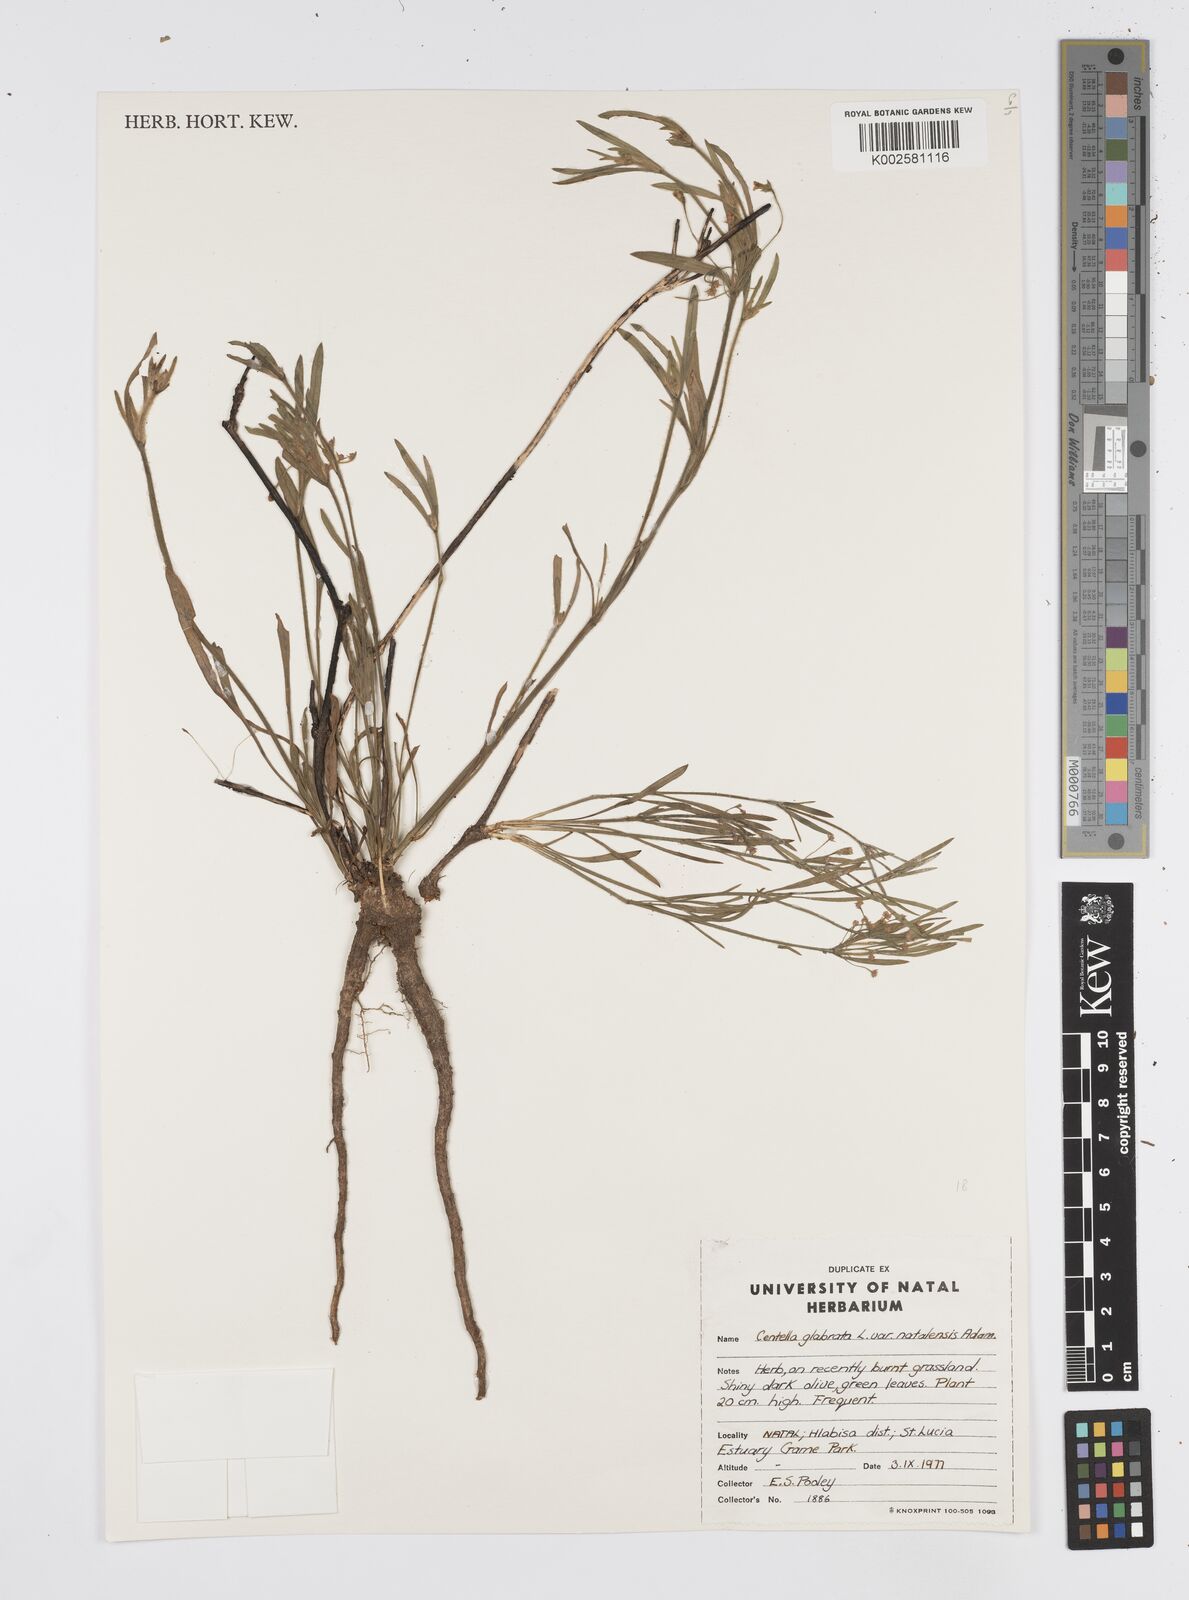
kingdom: Plantae
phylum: Tracheophyta
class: Magnoliopsida
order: Apiales
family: Apiaceae
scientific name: Apiaceae
